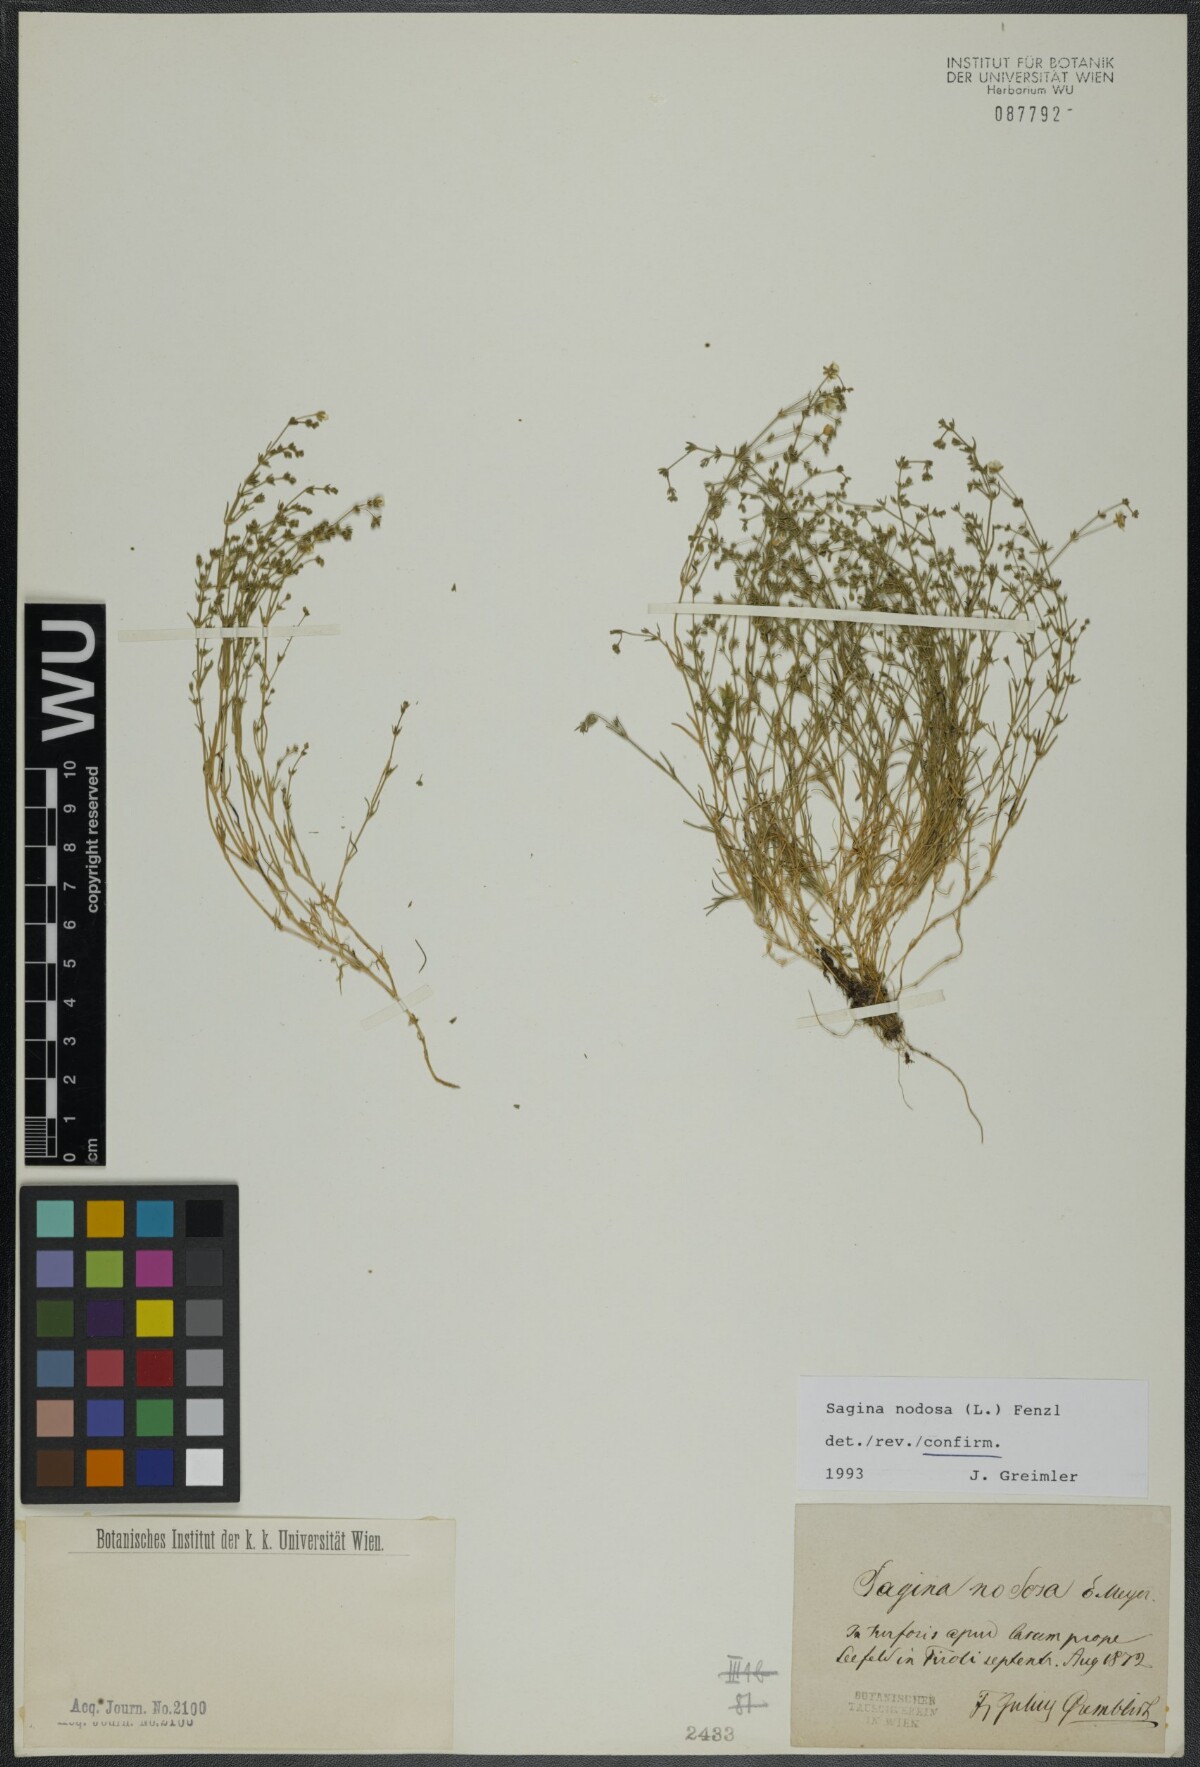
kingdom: Plantae
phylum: Tracheophyta
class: Magnoliopsida
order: Caryophyllales
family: Caryophyllaceae
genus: Sagina
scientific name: Sagina nodosa
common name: Knotted pearlwort
